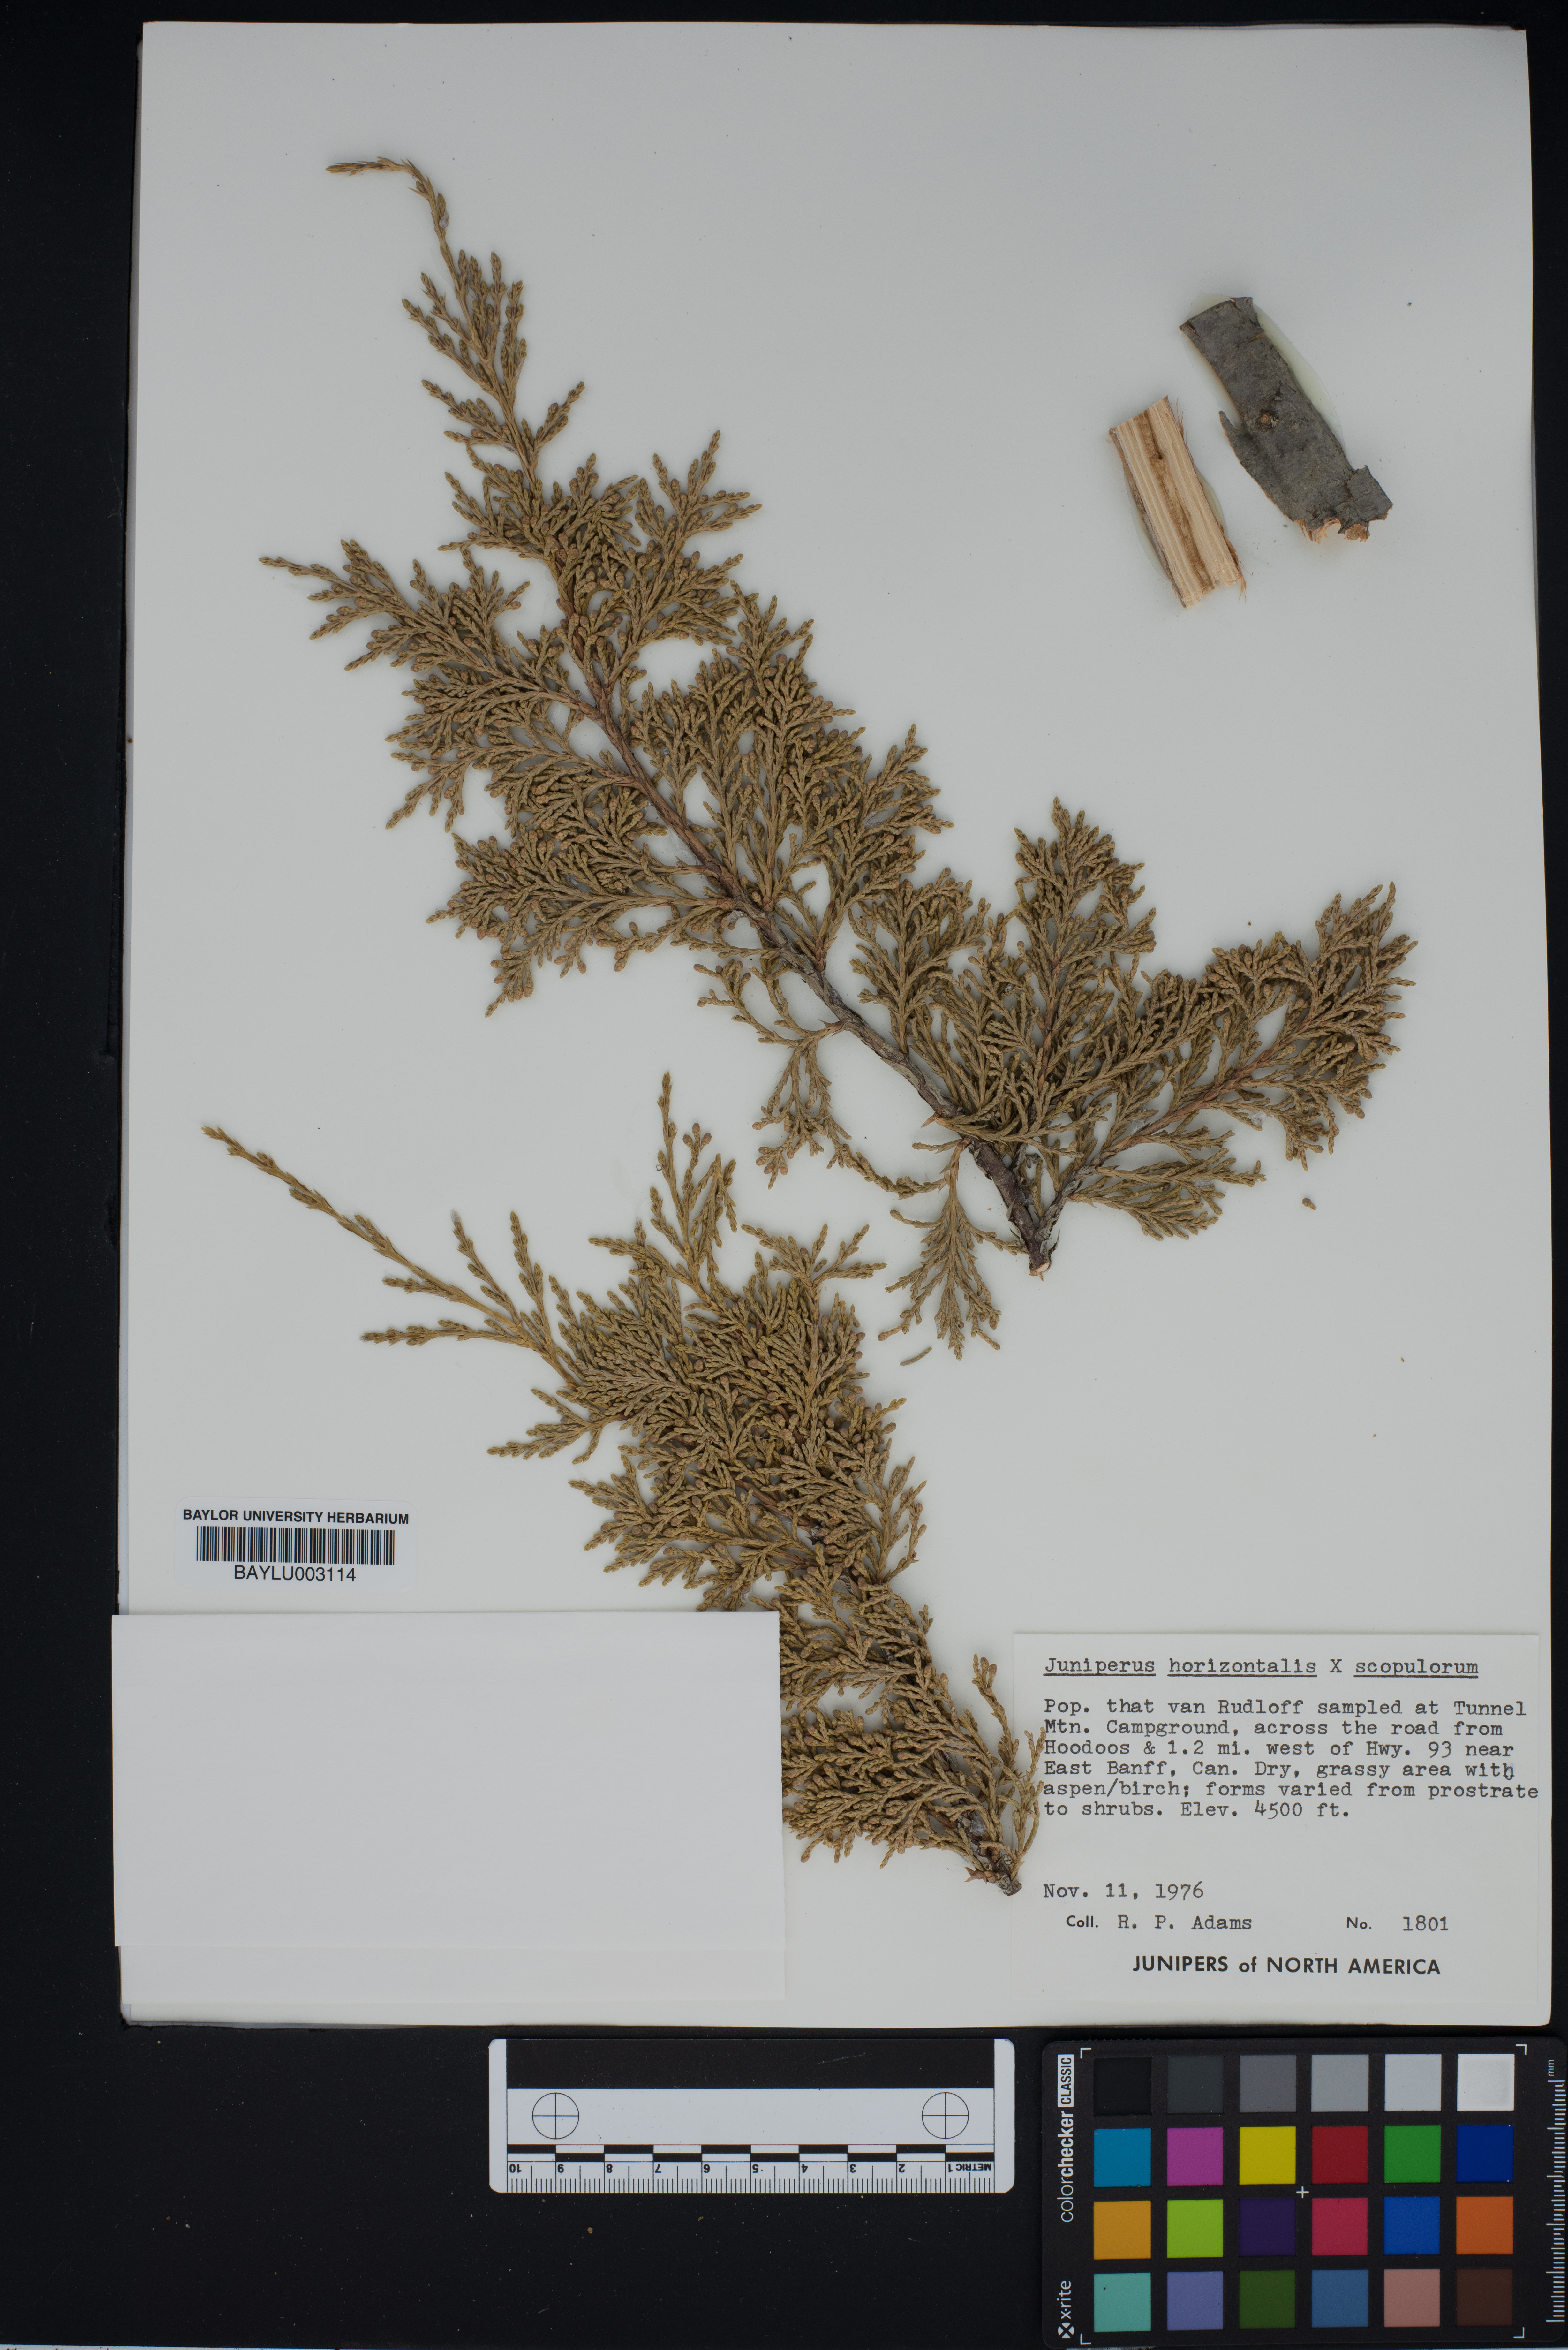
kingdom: Plantae
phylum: Tracheophyta
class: Pinopsida
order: Pinales
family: Cupressaceae
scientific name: Cupressaceae
